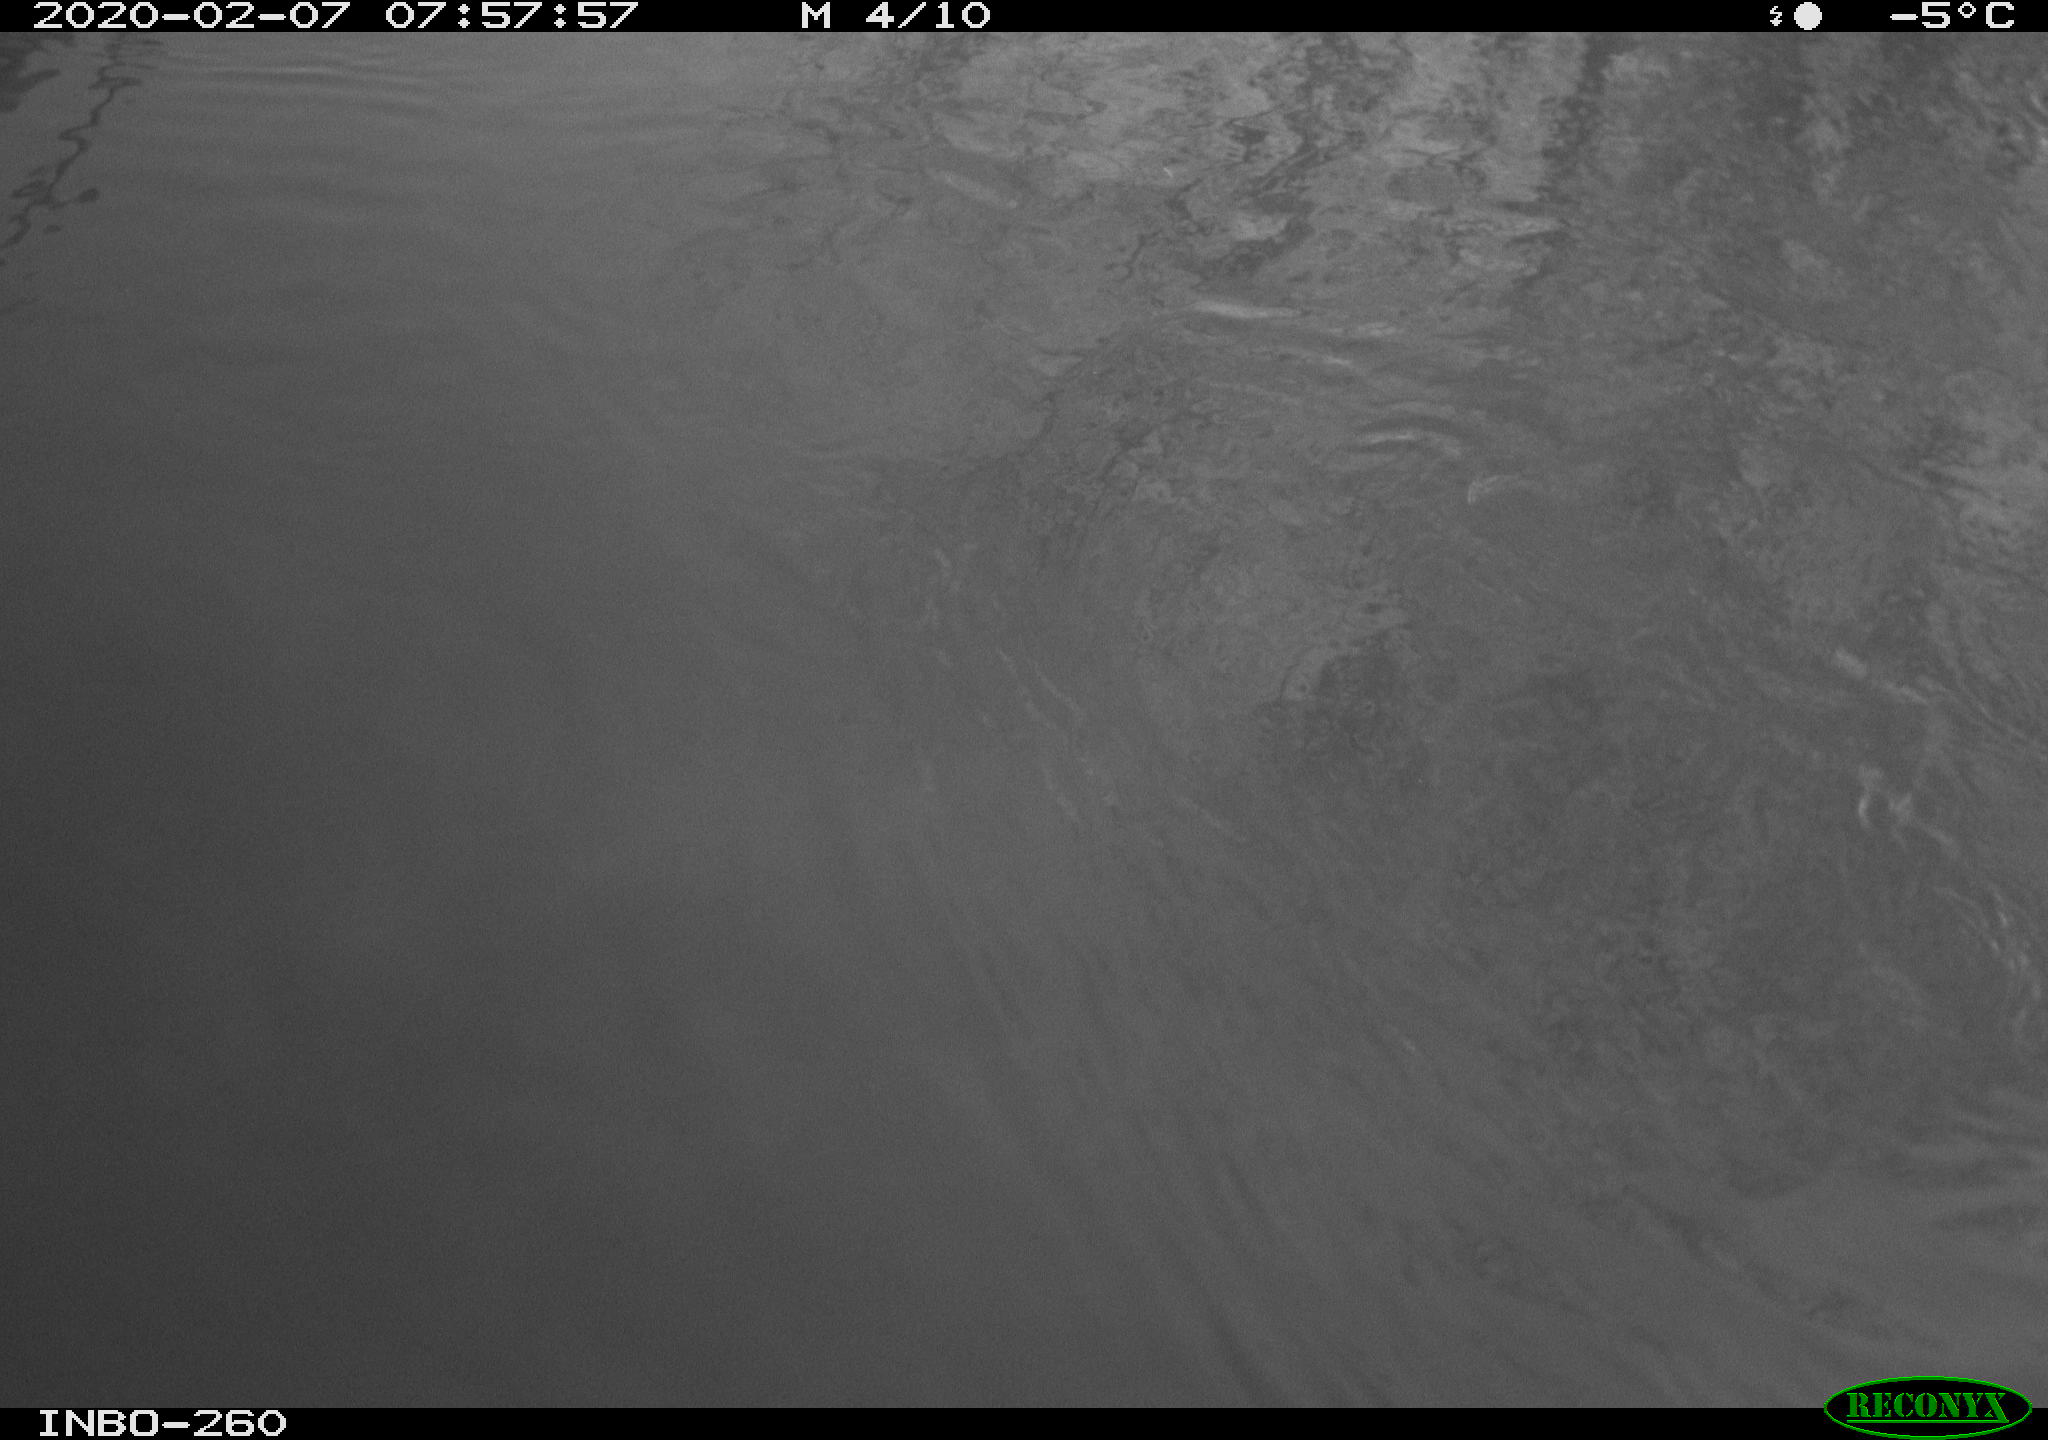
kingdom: Animalia
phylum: Chordata
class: Aves
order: Anseriformes
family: Anatidae
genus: Anas
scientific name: Anas platyrhynchos
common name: Mallard
